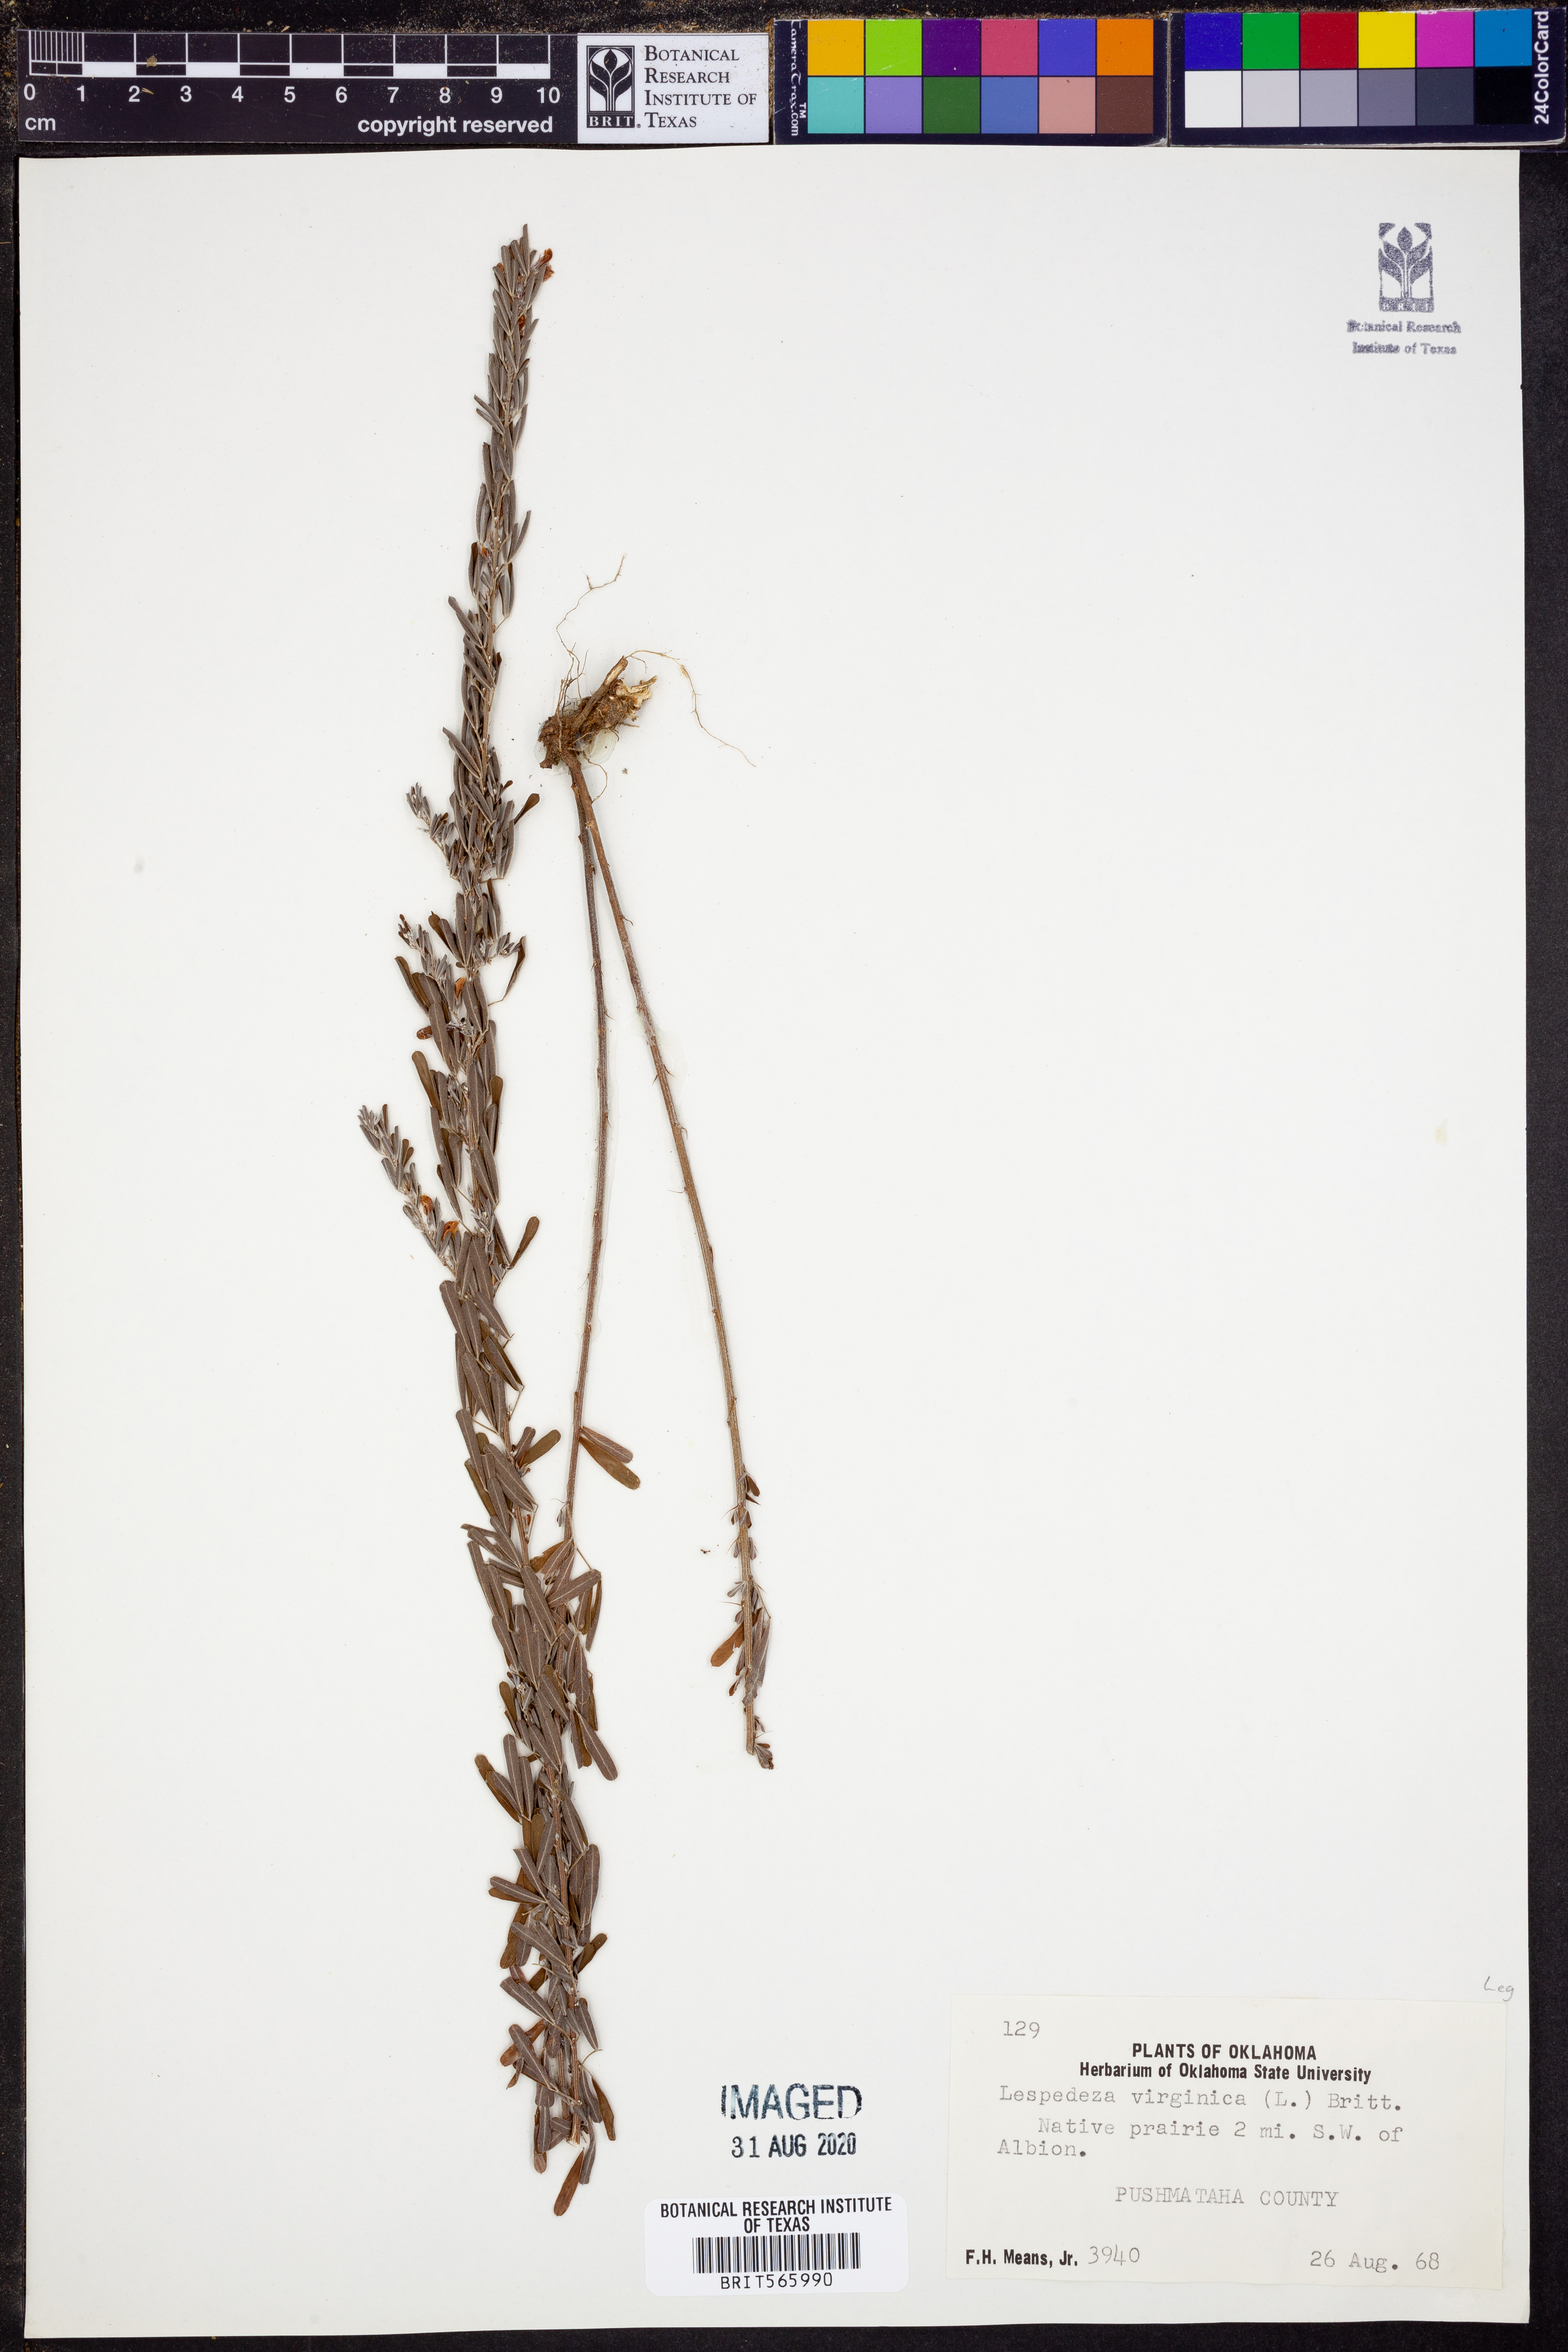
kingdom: Plantae
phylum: Tracheophyta
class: Magnoliopsida
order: Fabales
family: Fabaceae
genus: Lespedeza
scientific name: Lespedeza virginica
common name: Slender bush-clover
